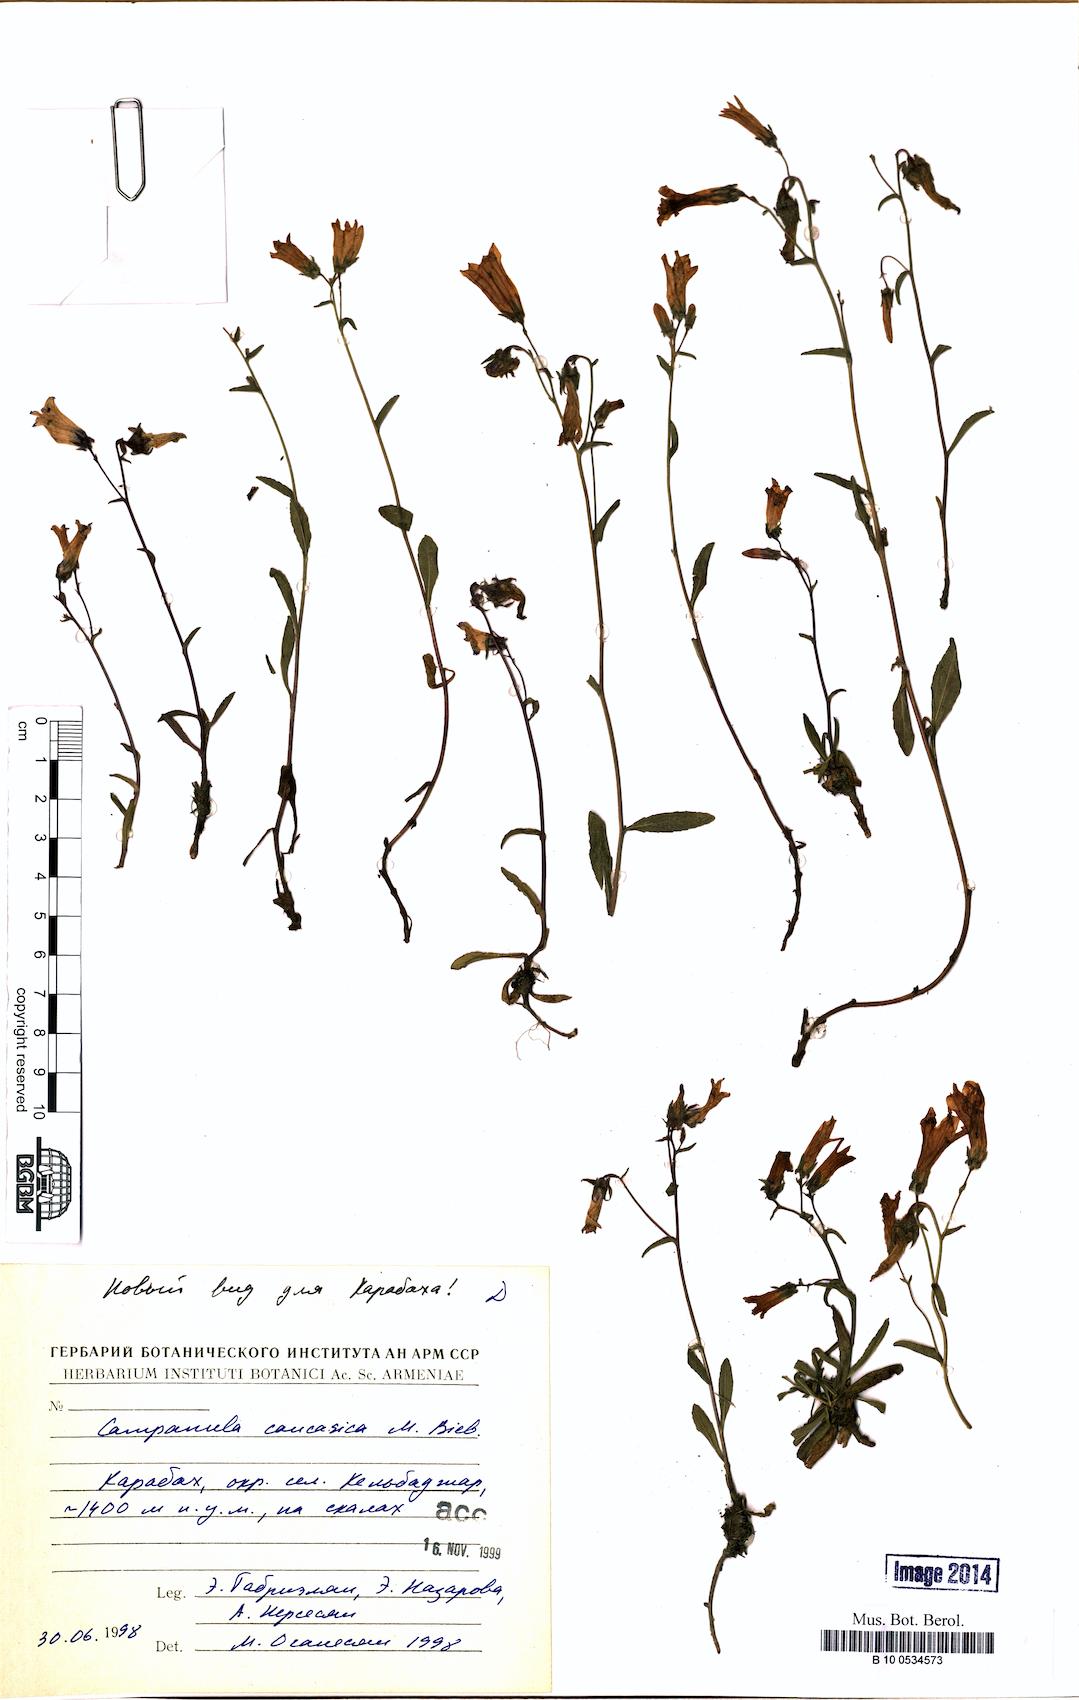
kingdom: Plantae
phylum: Tracheophyta
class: Magnoliopsida
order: Asterales
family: Campanulaceae
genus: Campanula
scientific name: Campanula caucasica
